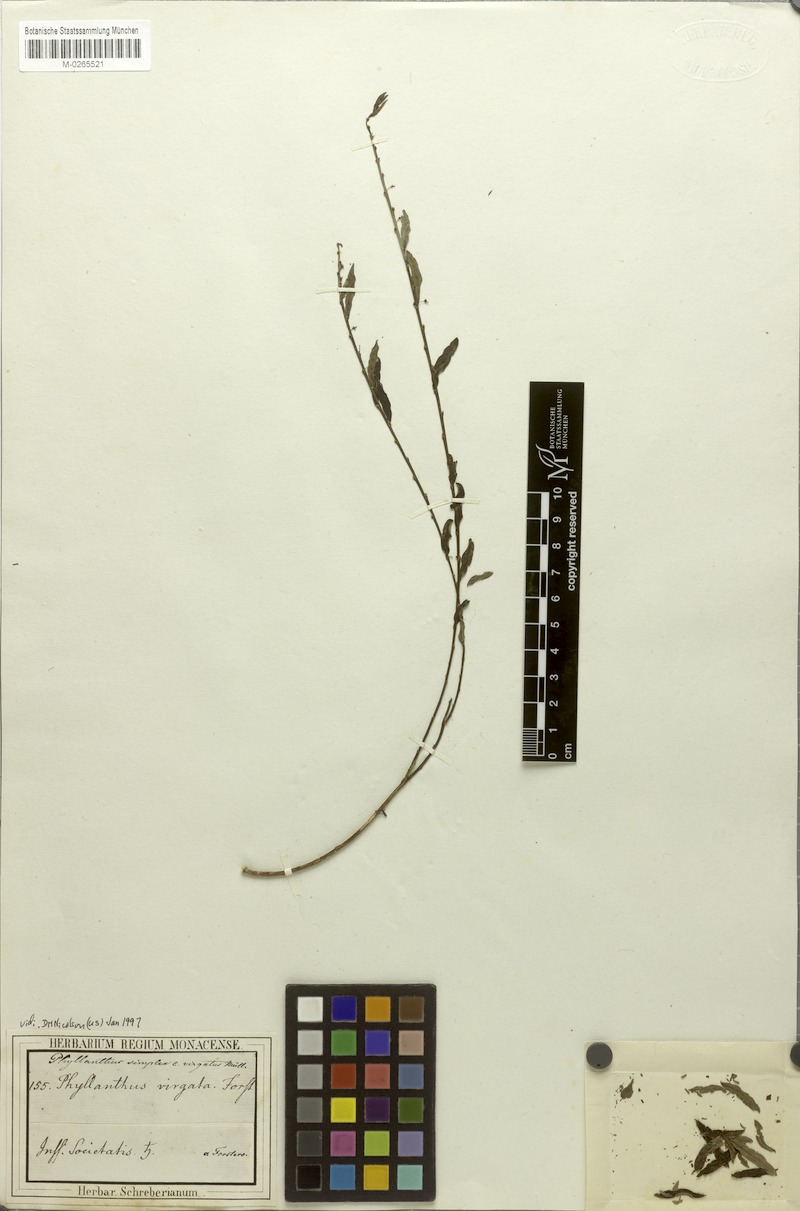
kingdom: Plantae
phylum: Tracheophyta
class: Magnoliopsida
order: Malpighiales
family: Phyllanthaceae
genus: Phyllanthus
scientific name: Phyllanthus virgatus
